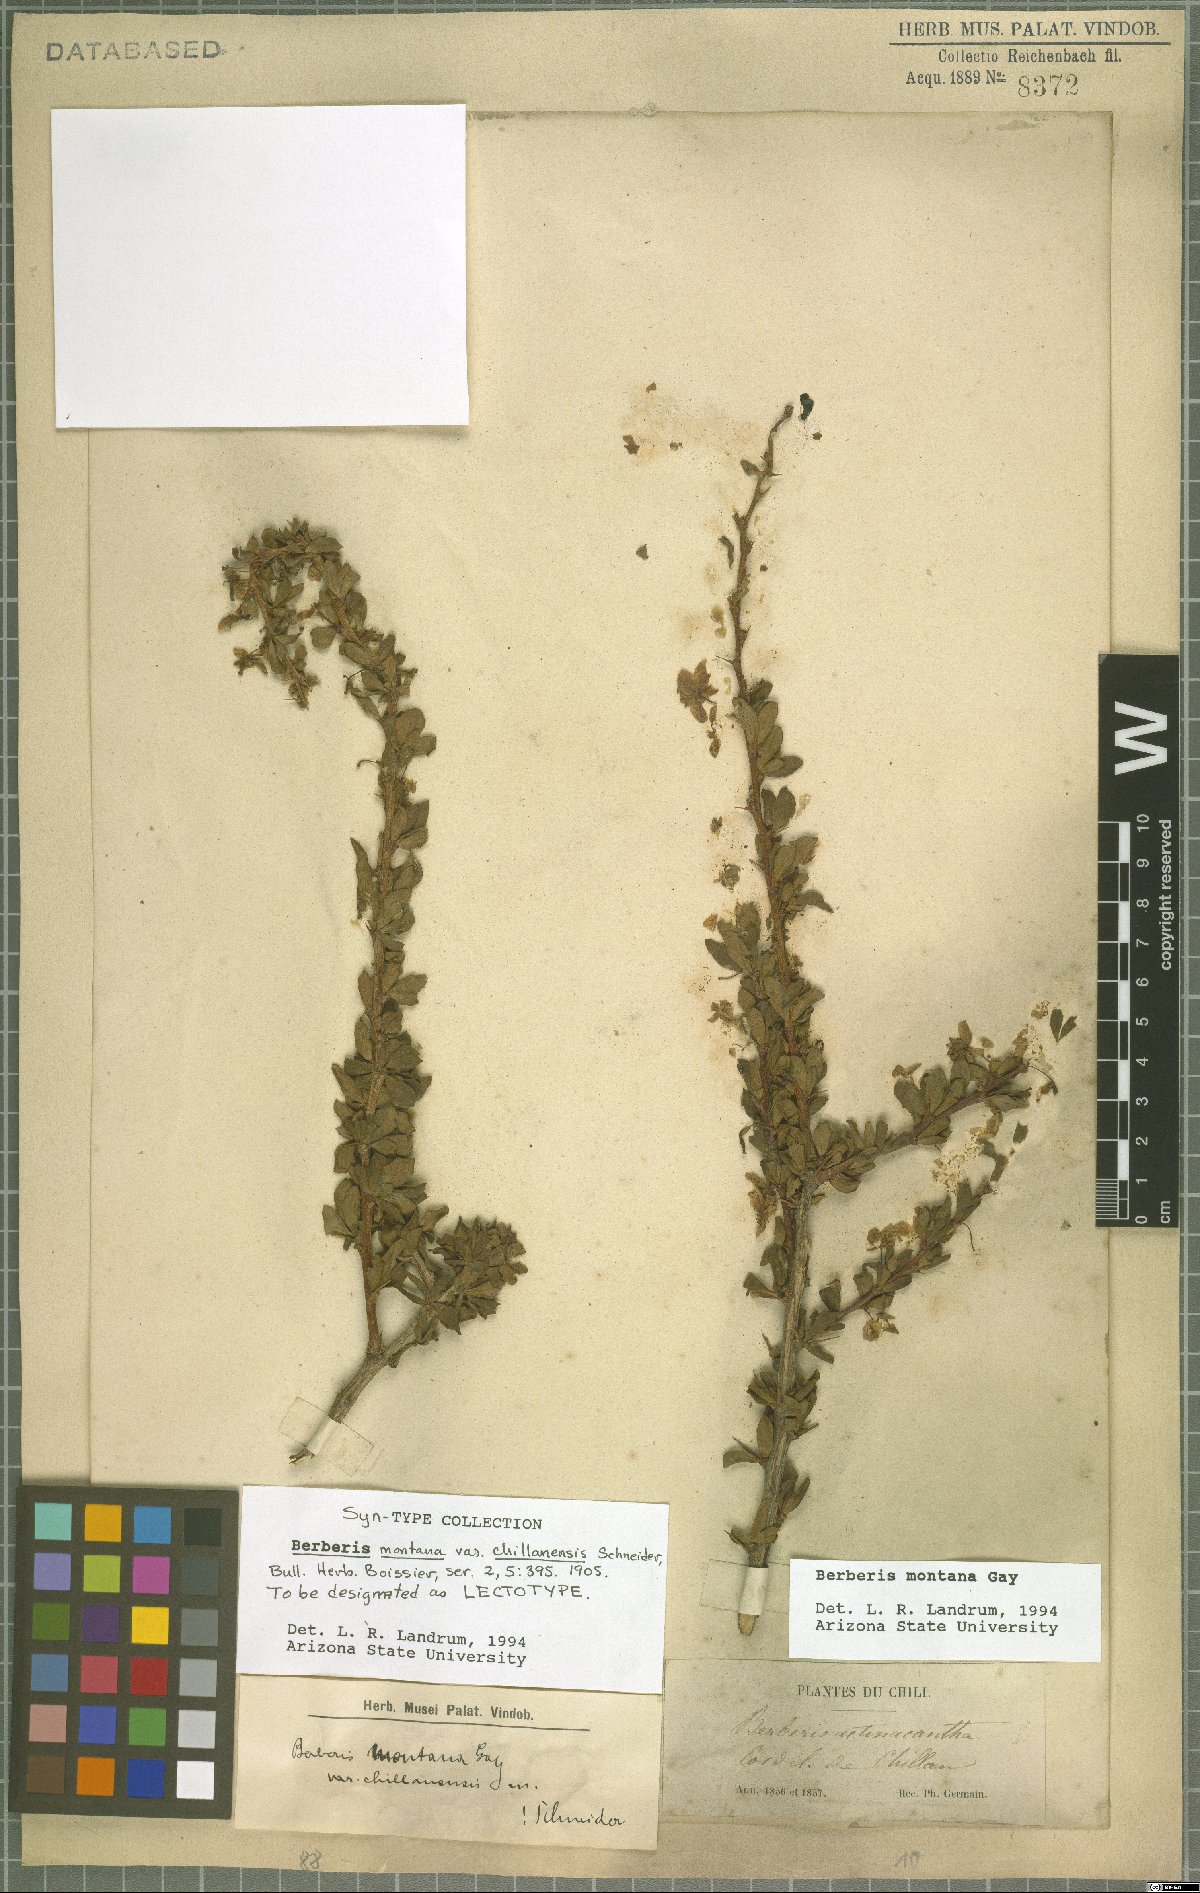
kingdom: Plantae
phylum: Tracheophyta
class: Magnoliopsida
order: Ranunculales
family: Berberidaceae
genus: Berberis
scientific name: Berberis montana
